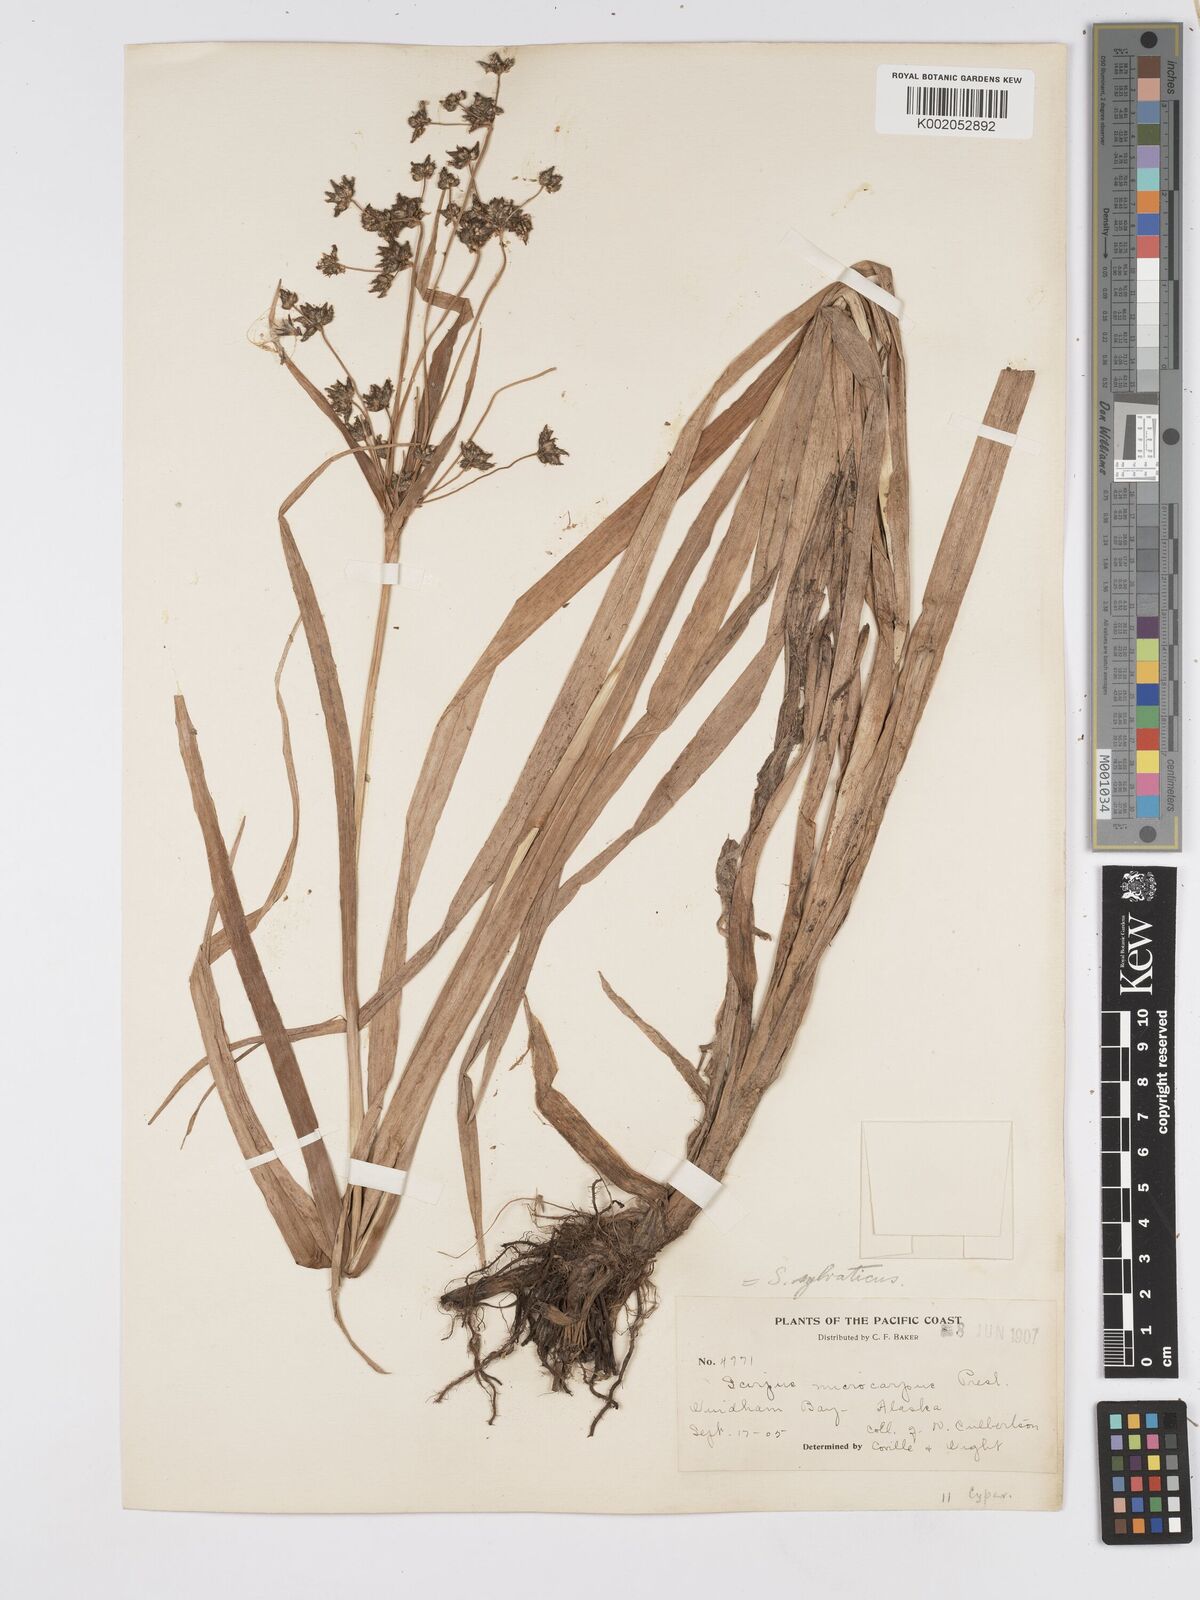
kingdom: Plantae
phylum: Tracheophyta
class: Liliopsida
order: Poales
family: Cyperaceae
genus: Scirpus
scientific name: Scirpus sylvaticus
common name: Wood club-rush
